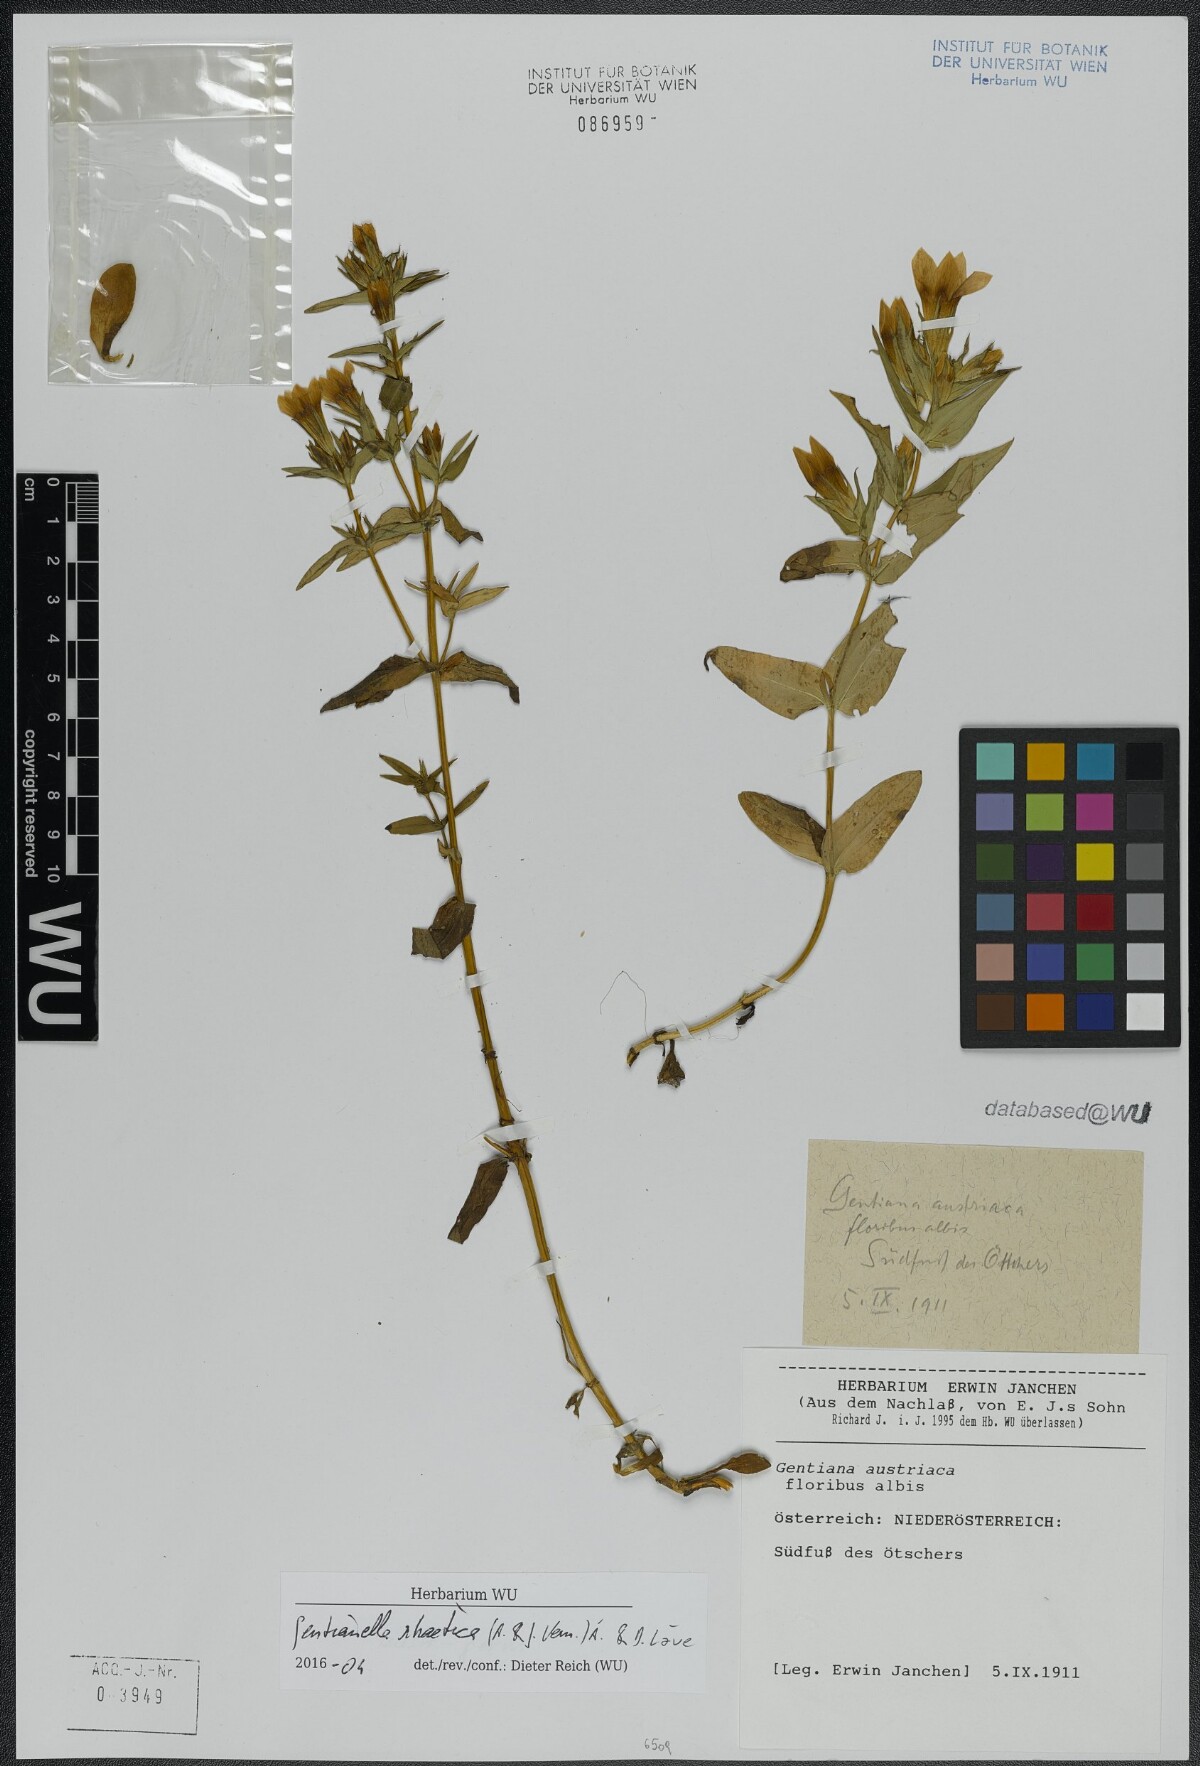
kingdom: Plantae
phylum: Tracheophyta
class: Magnoliopsida
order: Gentianales
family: Gentianaceae
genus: Gentianella
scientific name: Gentianella rhaetica
